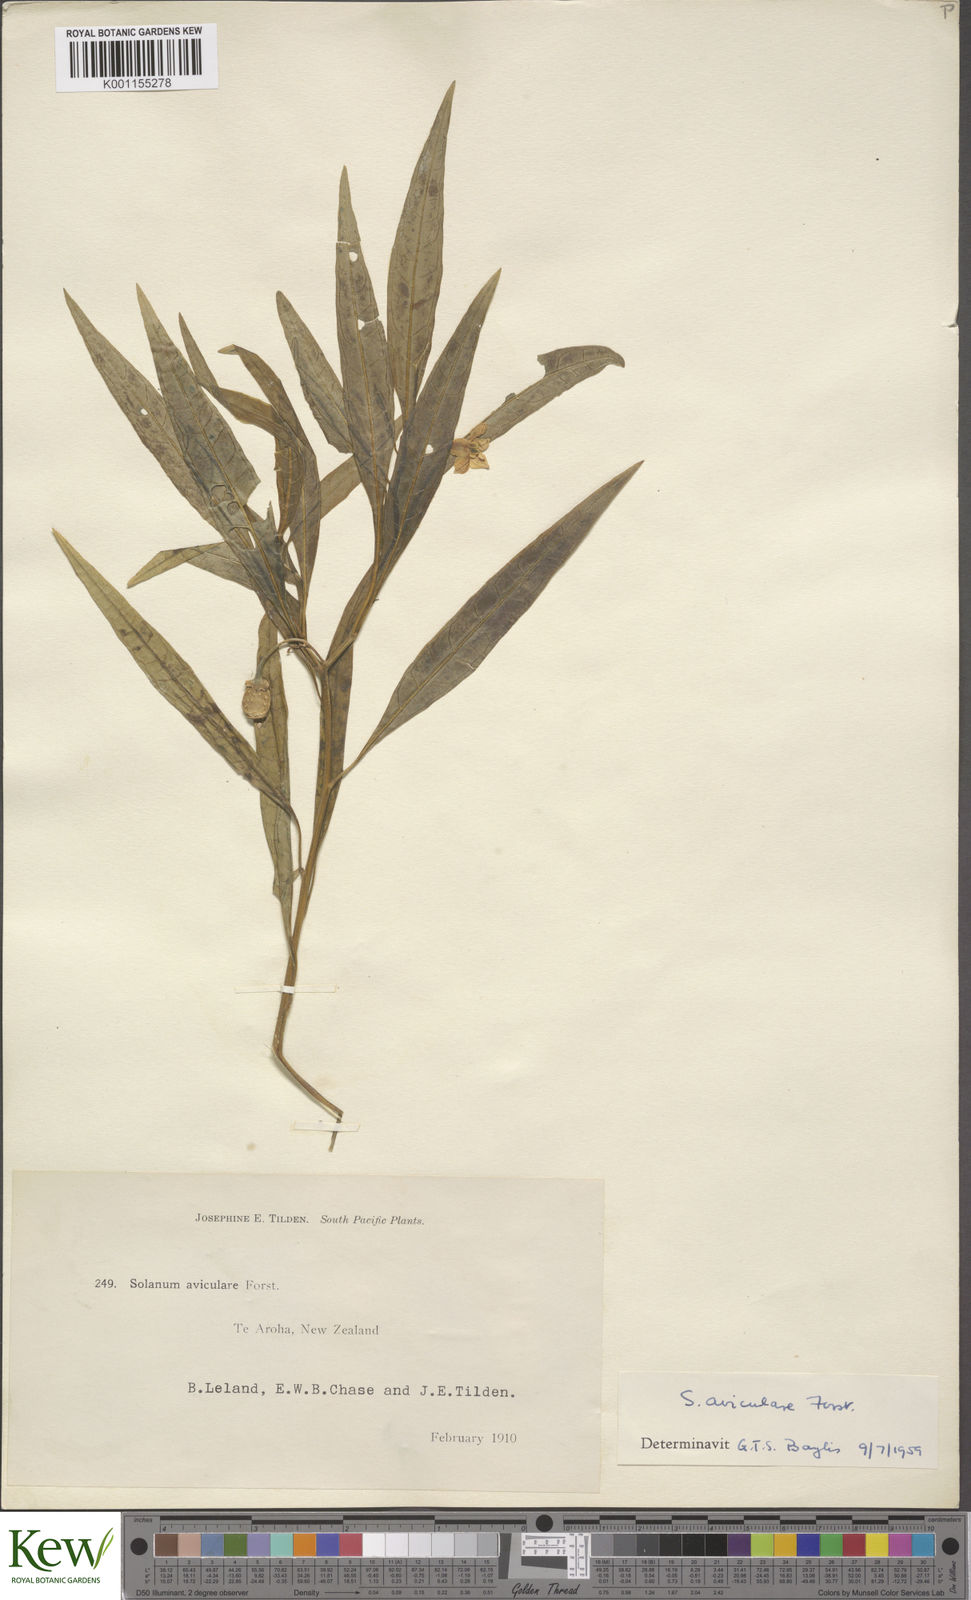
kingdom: Plantae
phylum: Tracheophyta
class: Magnoliopsida
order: Solanales
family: Solanaceae
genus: Solanum
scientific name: Solanum aviculare
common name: New zealand nightshade
